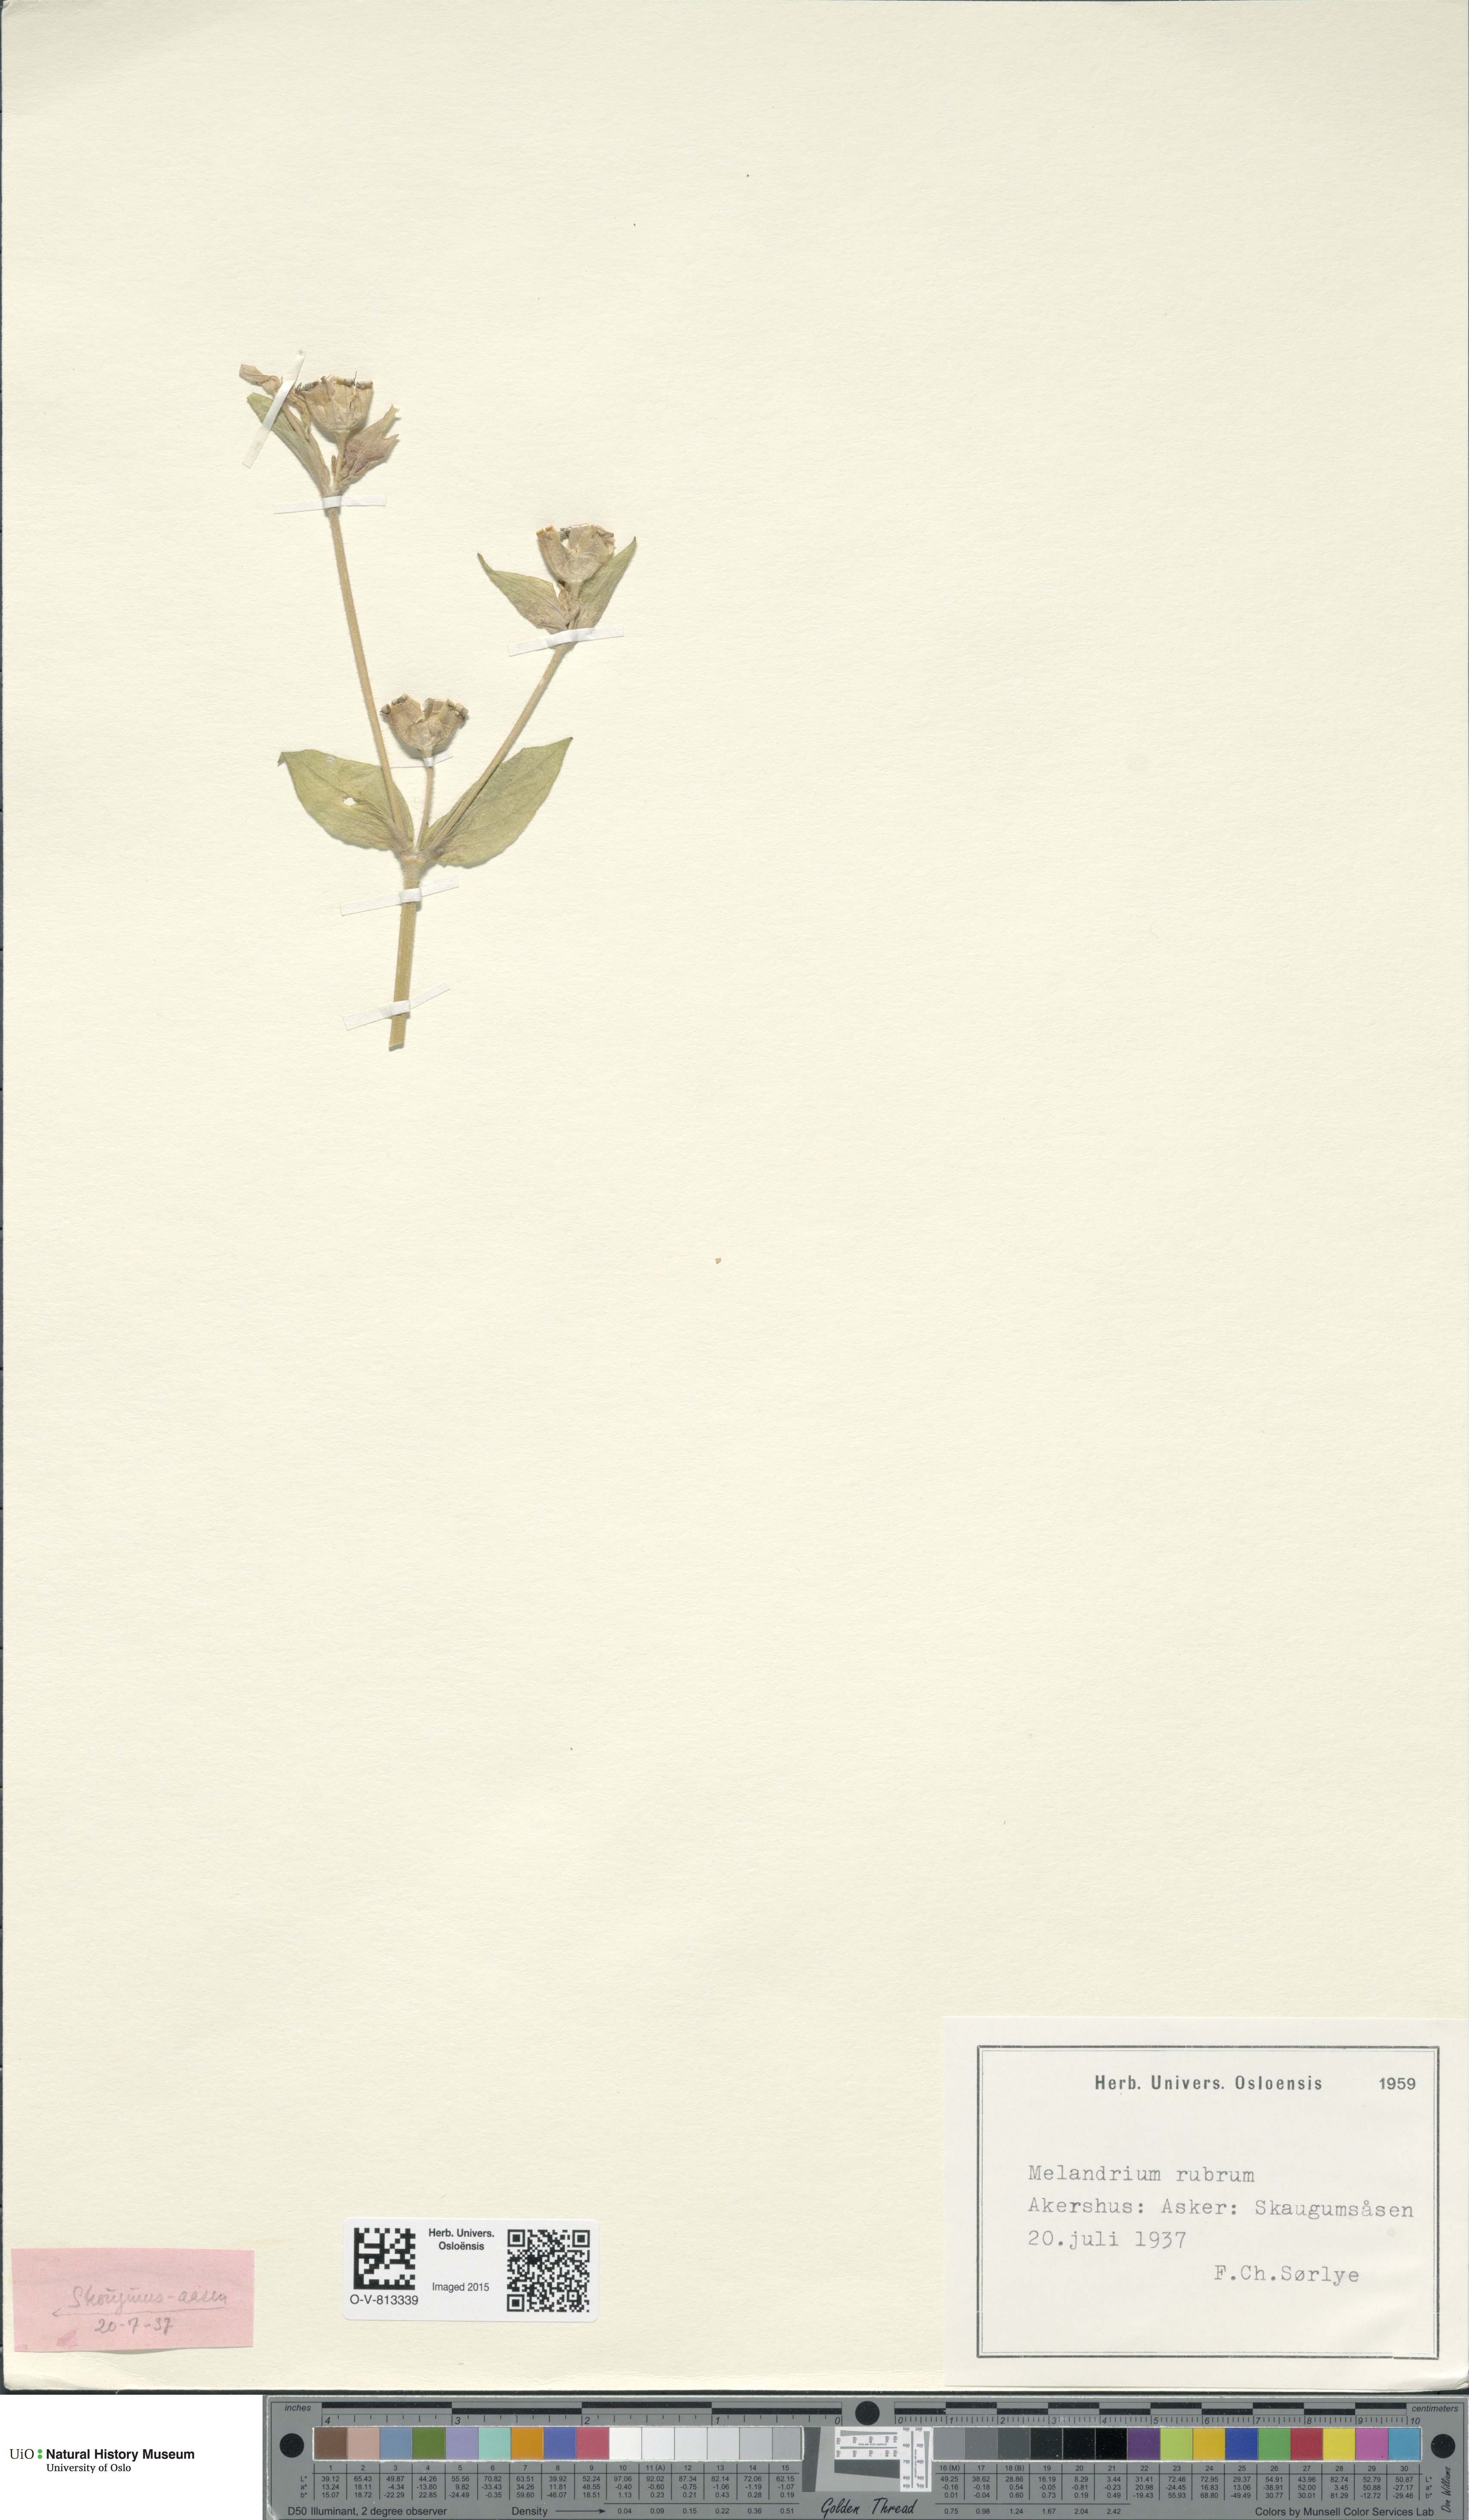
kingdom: Plantae
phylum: Tracheophyta
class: Magnoliopsida
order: Caryophyllales
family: Caryophyllaceae
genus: Silene
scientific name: Silene dioica
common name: Red campion
